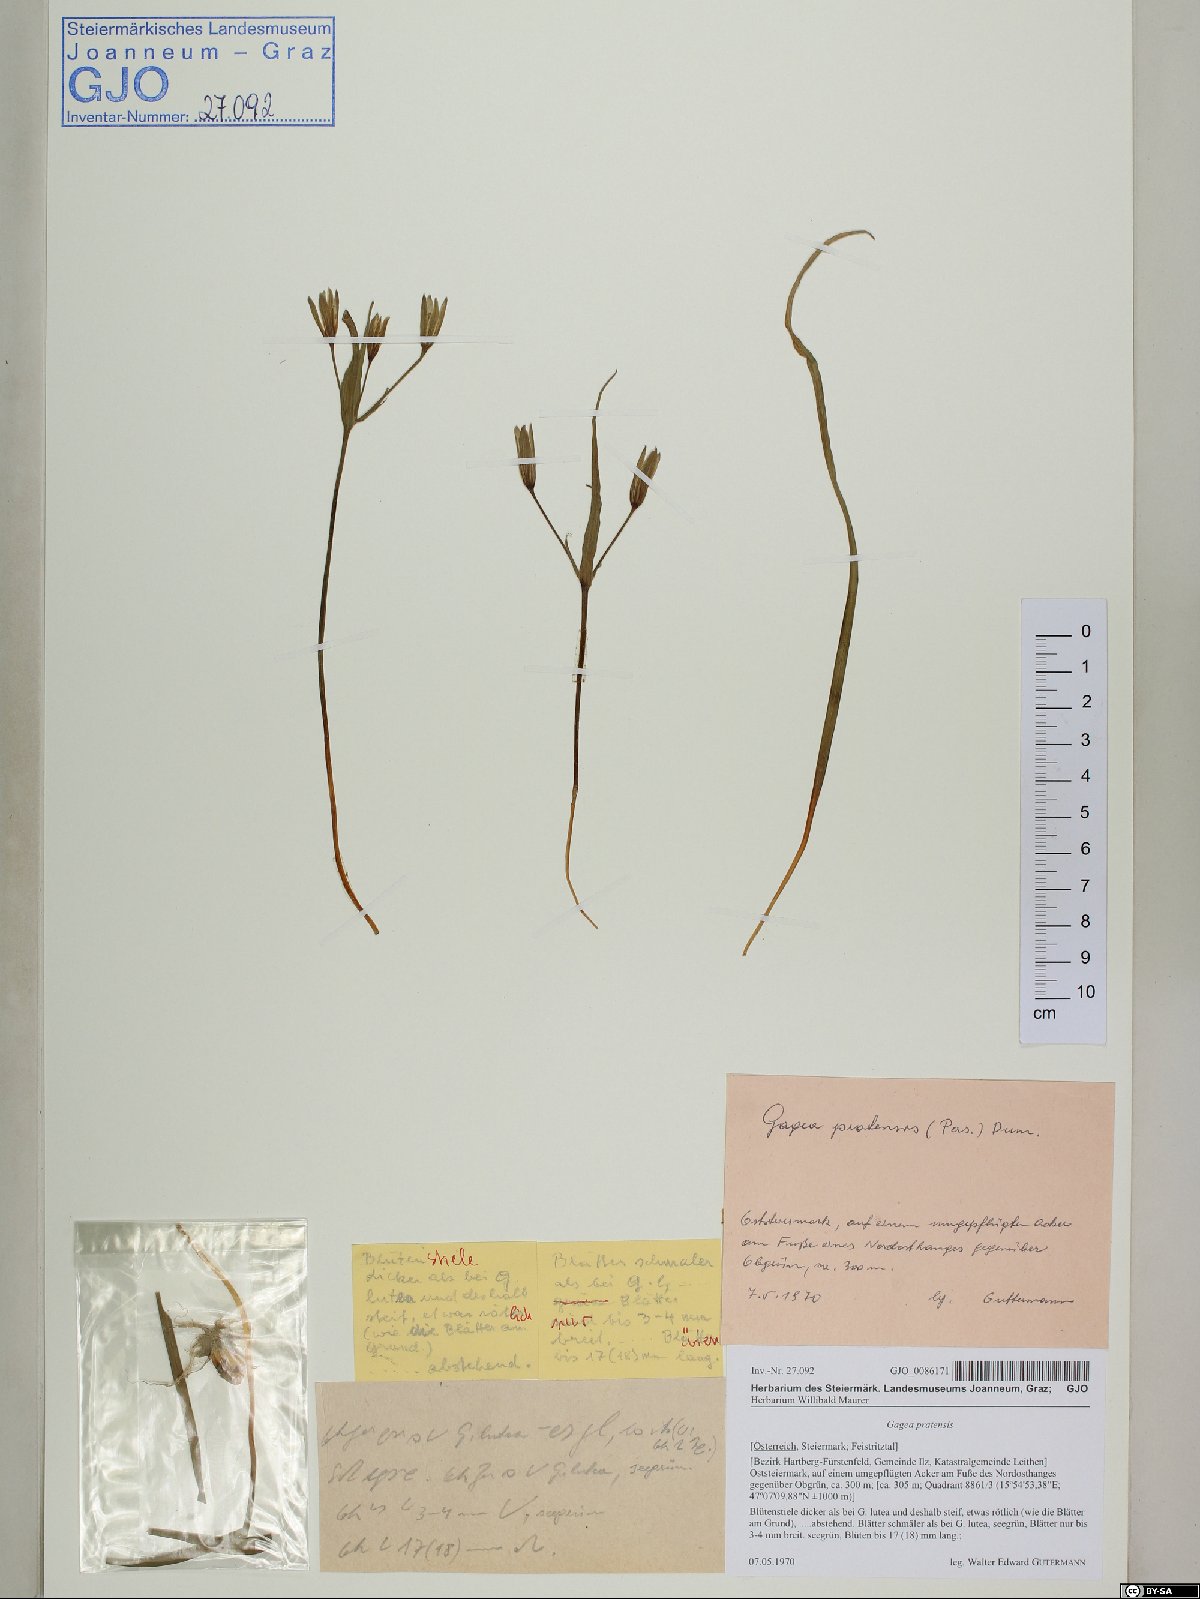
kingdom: Plantae
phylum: Tracheophyta
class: Liliopsida
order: Liliales
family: Liliaceae
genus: Gagea
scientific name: Gagea pratensis
